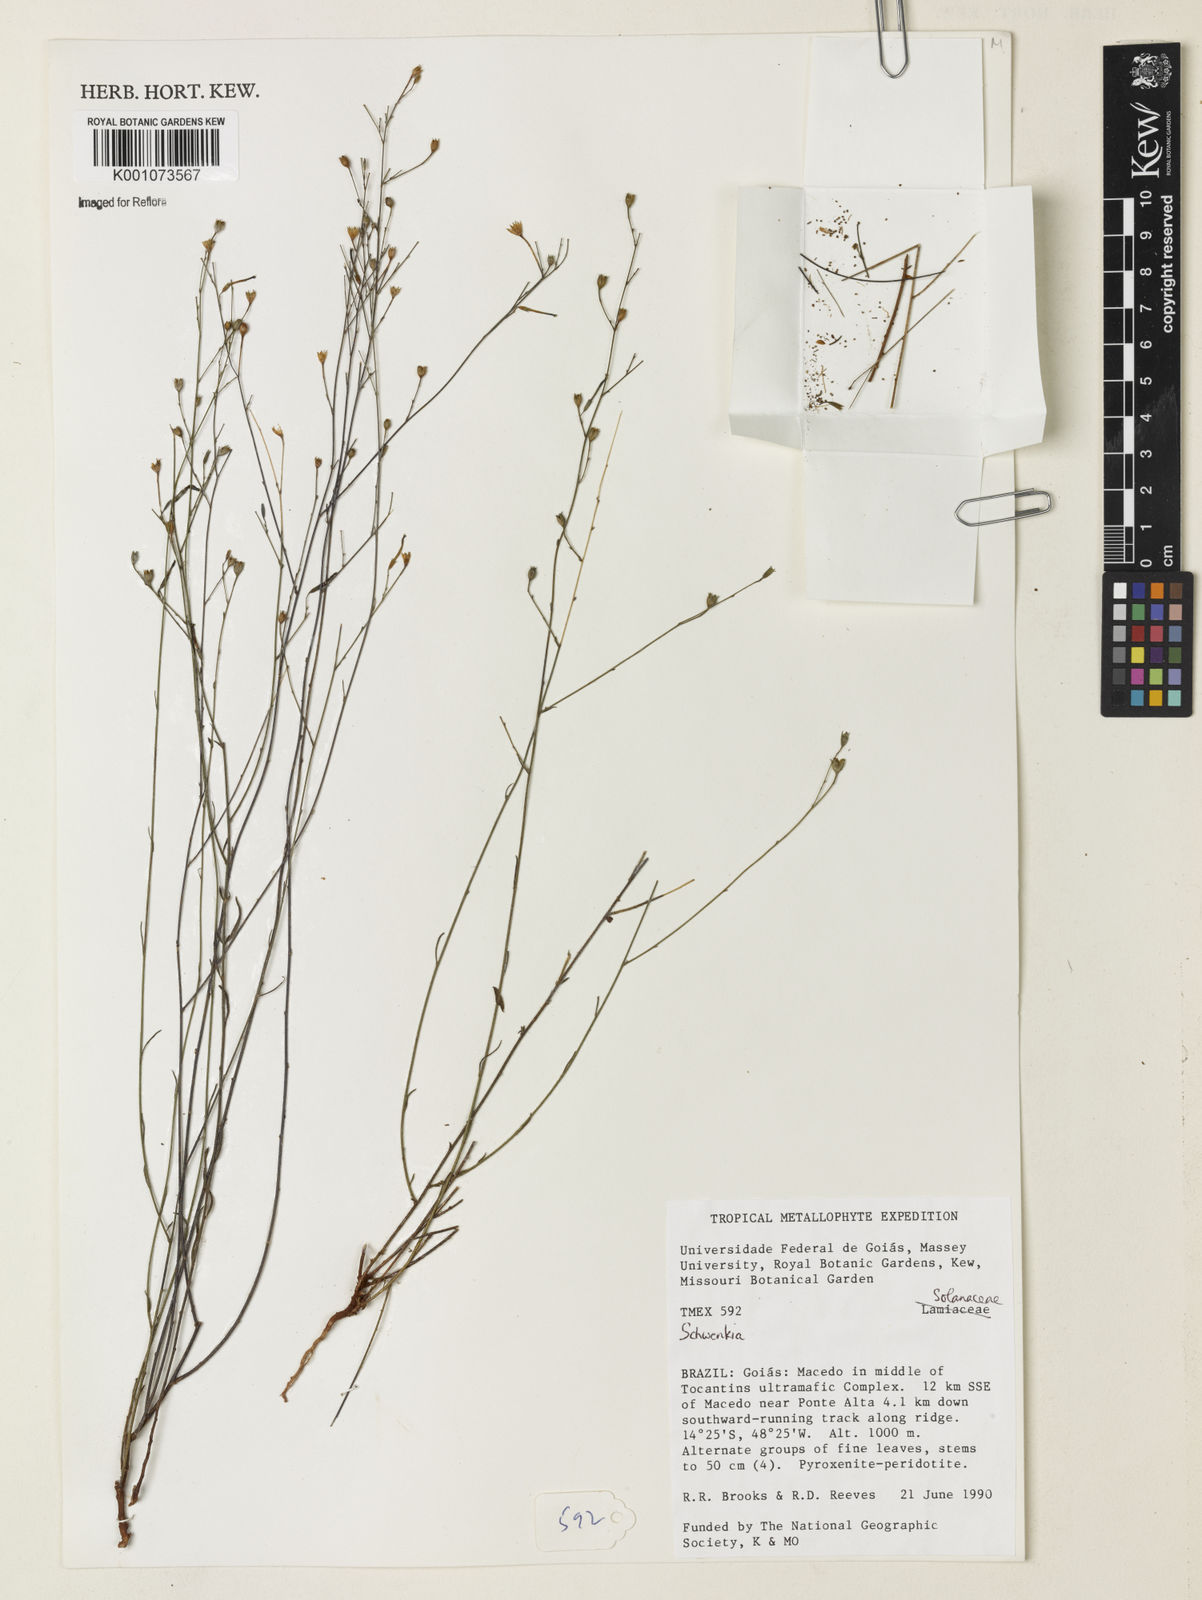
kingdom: Plantae
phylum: Tracheophyta
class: Magnoliopsida
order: Solanales
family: Solanaceae
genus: Schwenckia
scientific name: Schwenckia
